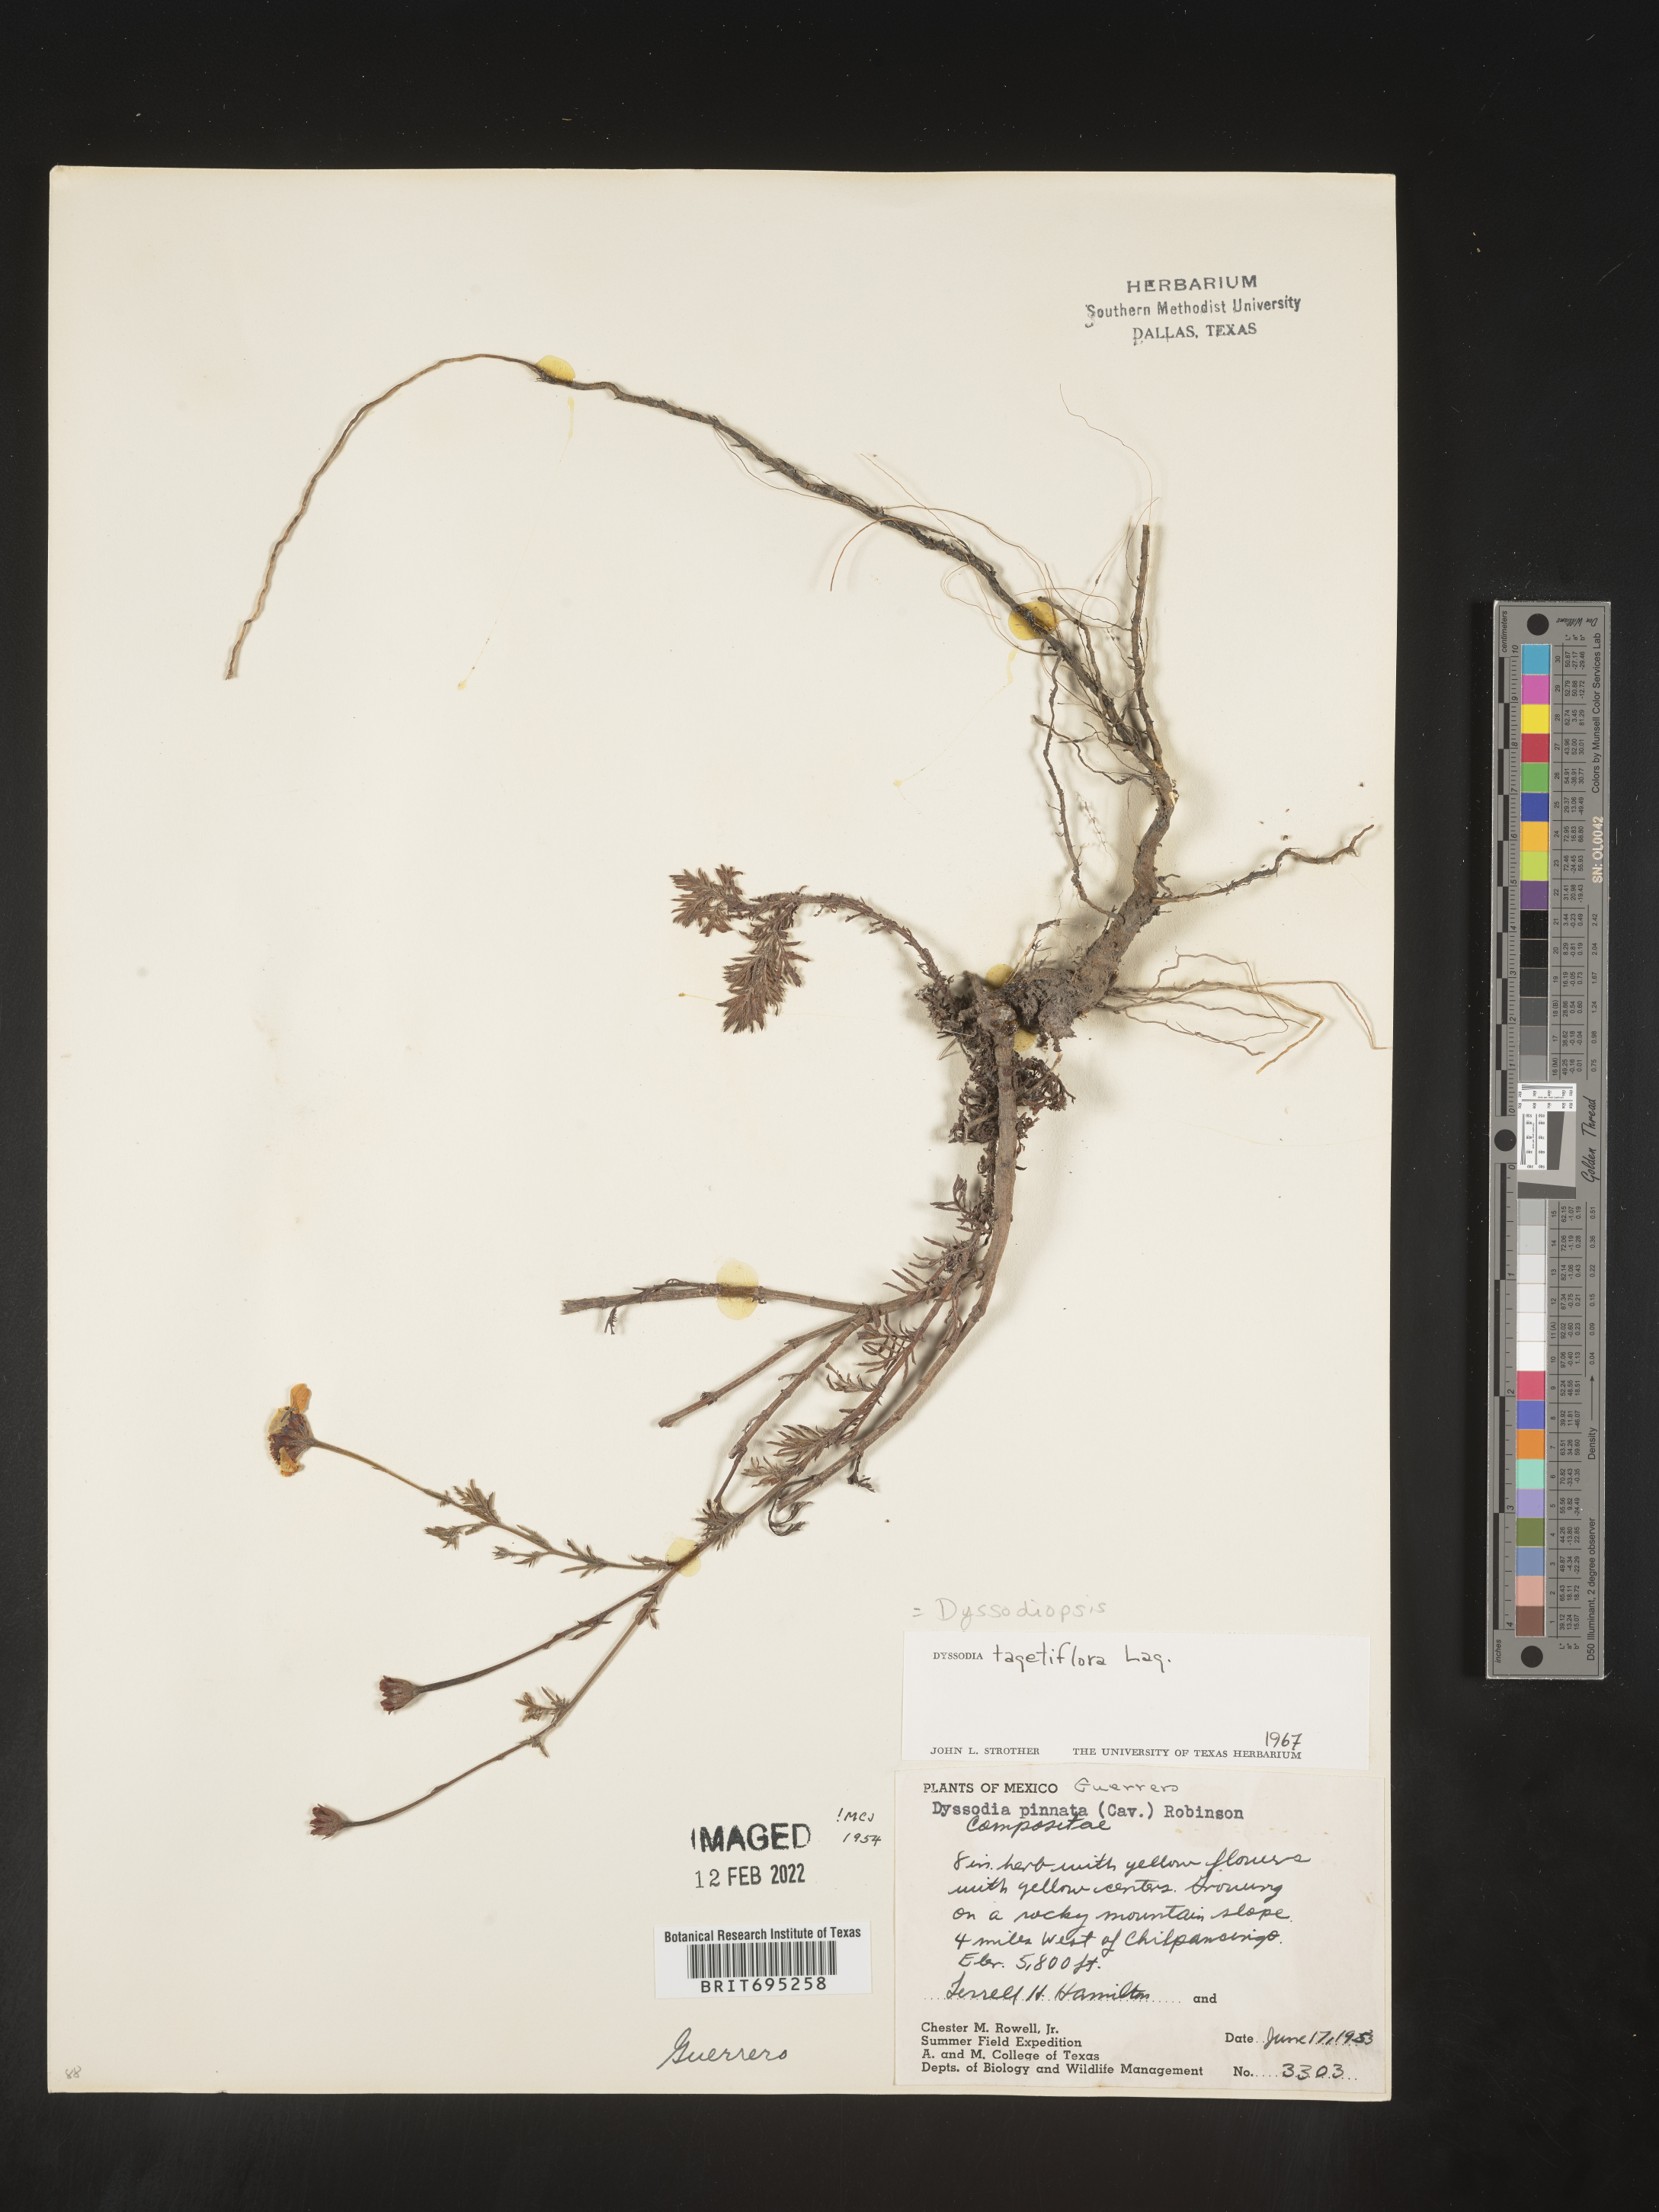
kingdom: Plantae
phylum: Tracheophyta
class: Magnoliopsida
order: Asterales
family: Asteraceae
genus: Dyssodia
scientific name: Dyssodia
